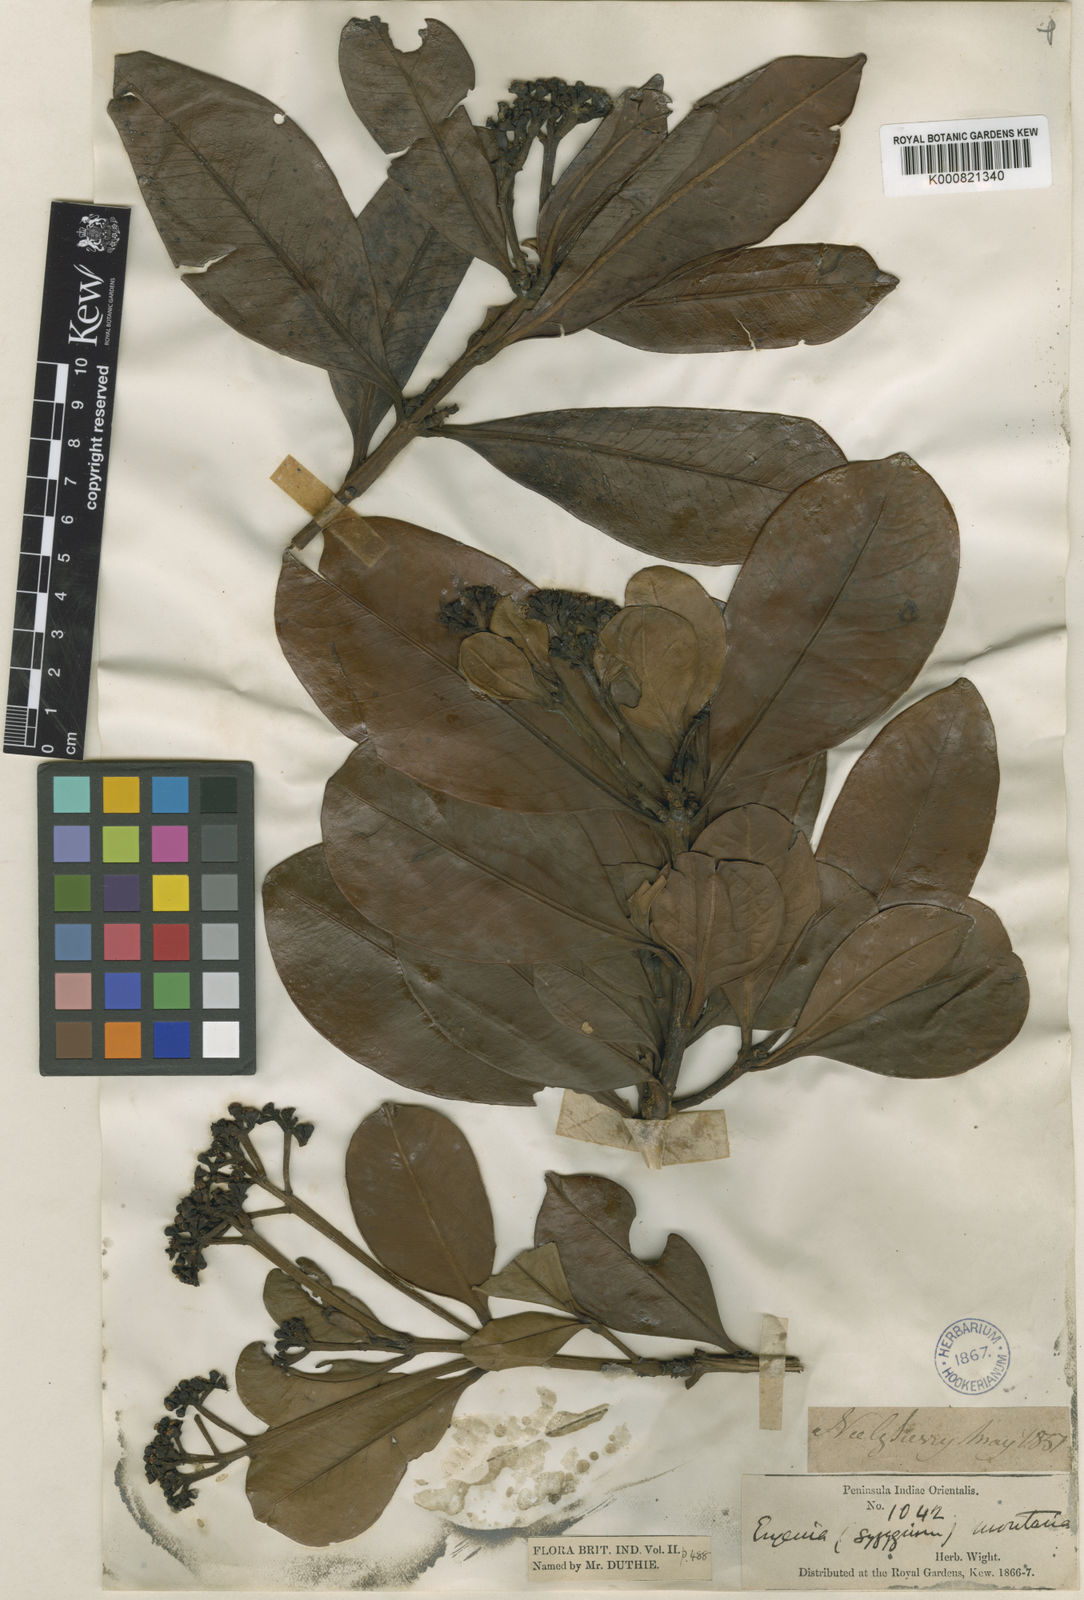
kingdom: Plantae
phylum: Tracheophyta
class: Magnoliopsida
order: Myrtales
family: Myrtaceae
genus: Syzygium
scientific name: Syzygium grande
